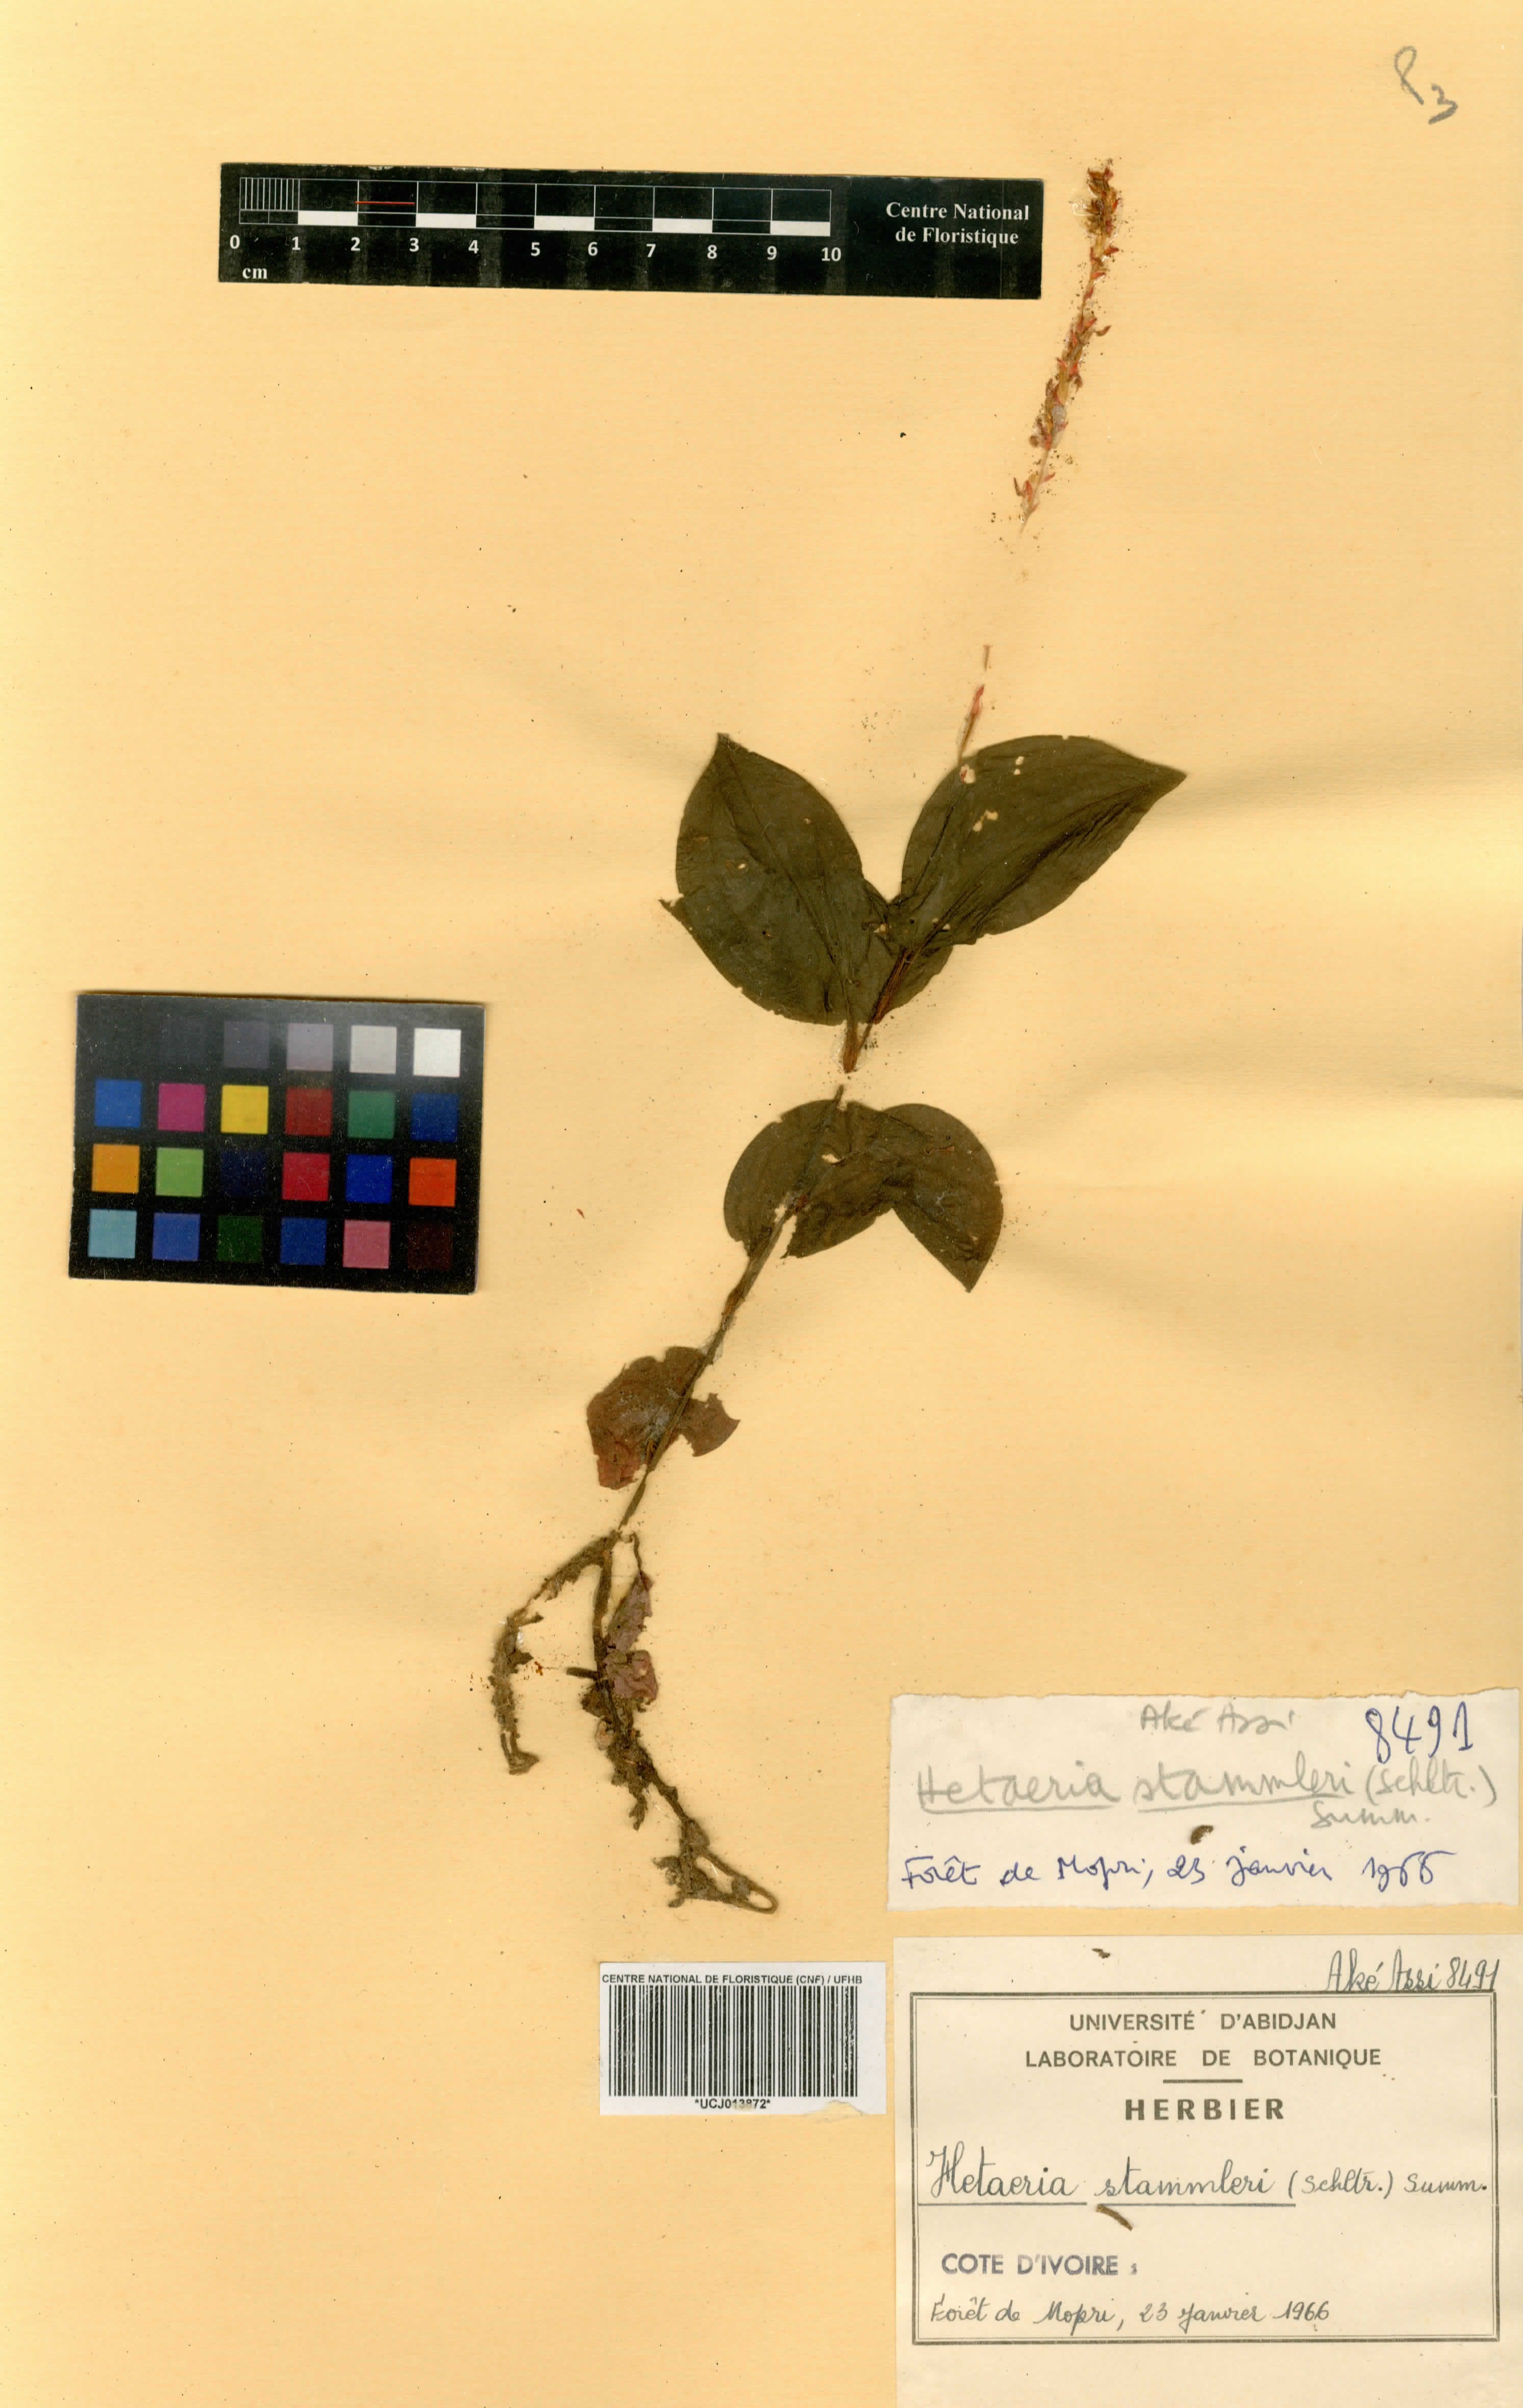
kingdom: Plantae
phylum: Tracheophyta
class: Liliopsida
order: Asparagales
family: Orchidaceae
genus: Zeuxine
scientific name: Zeuxine stammleri
